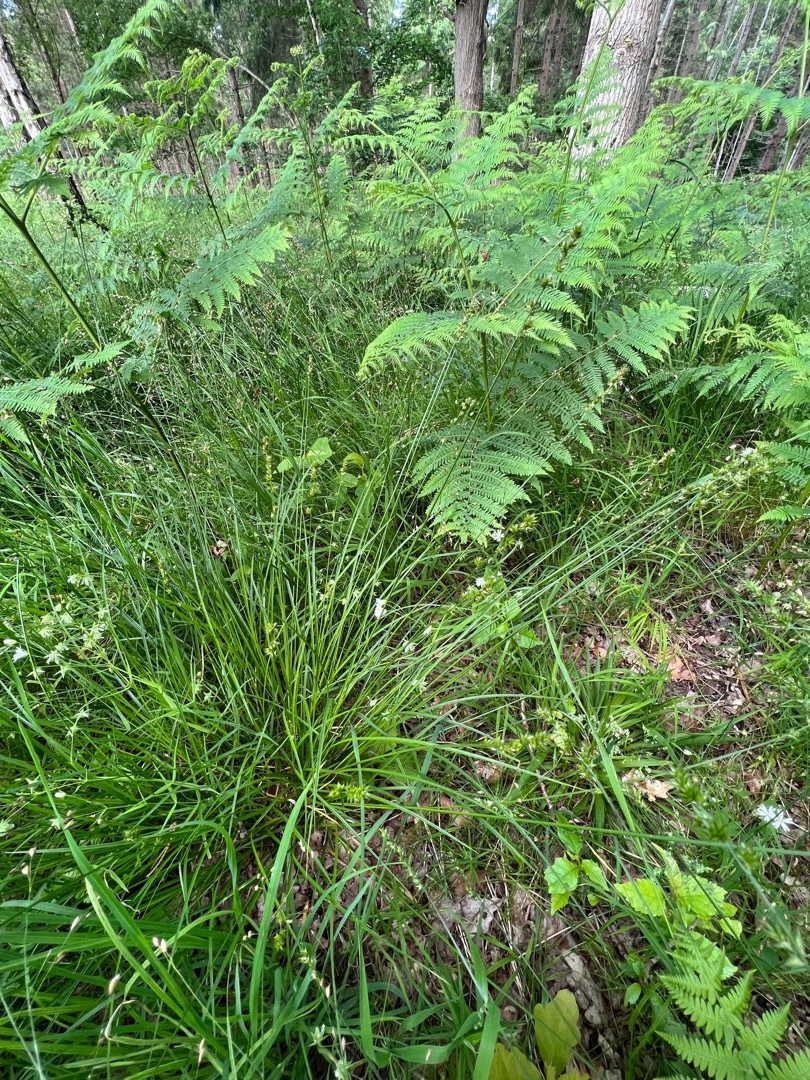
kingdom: Plantae
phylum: Tracheophyta
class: Liliopsida
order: Poales
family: Cyperaceae
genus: Carex
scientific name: Carex divulsa
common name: Mellembrudt star
